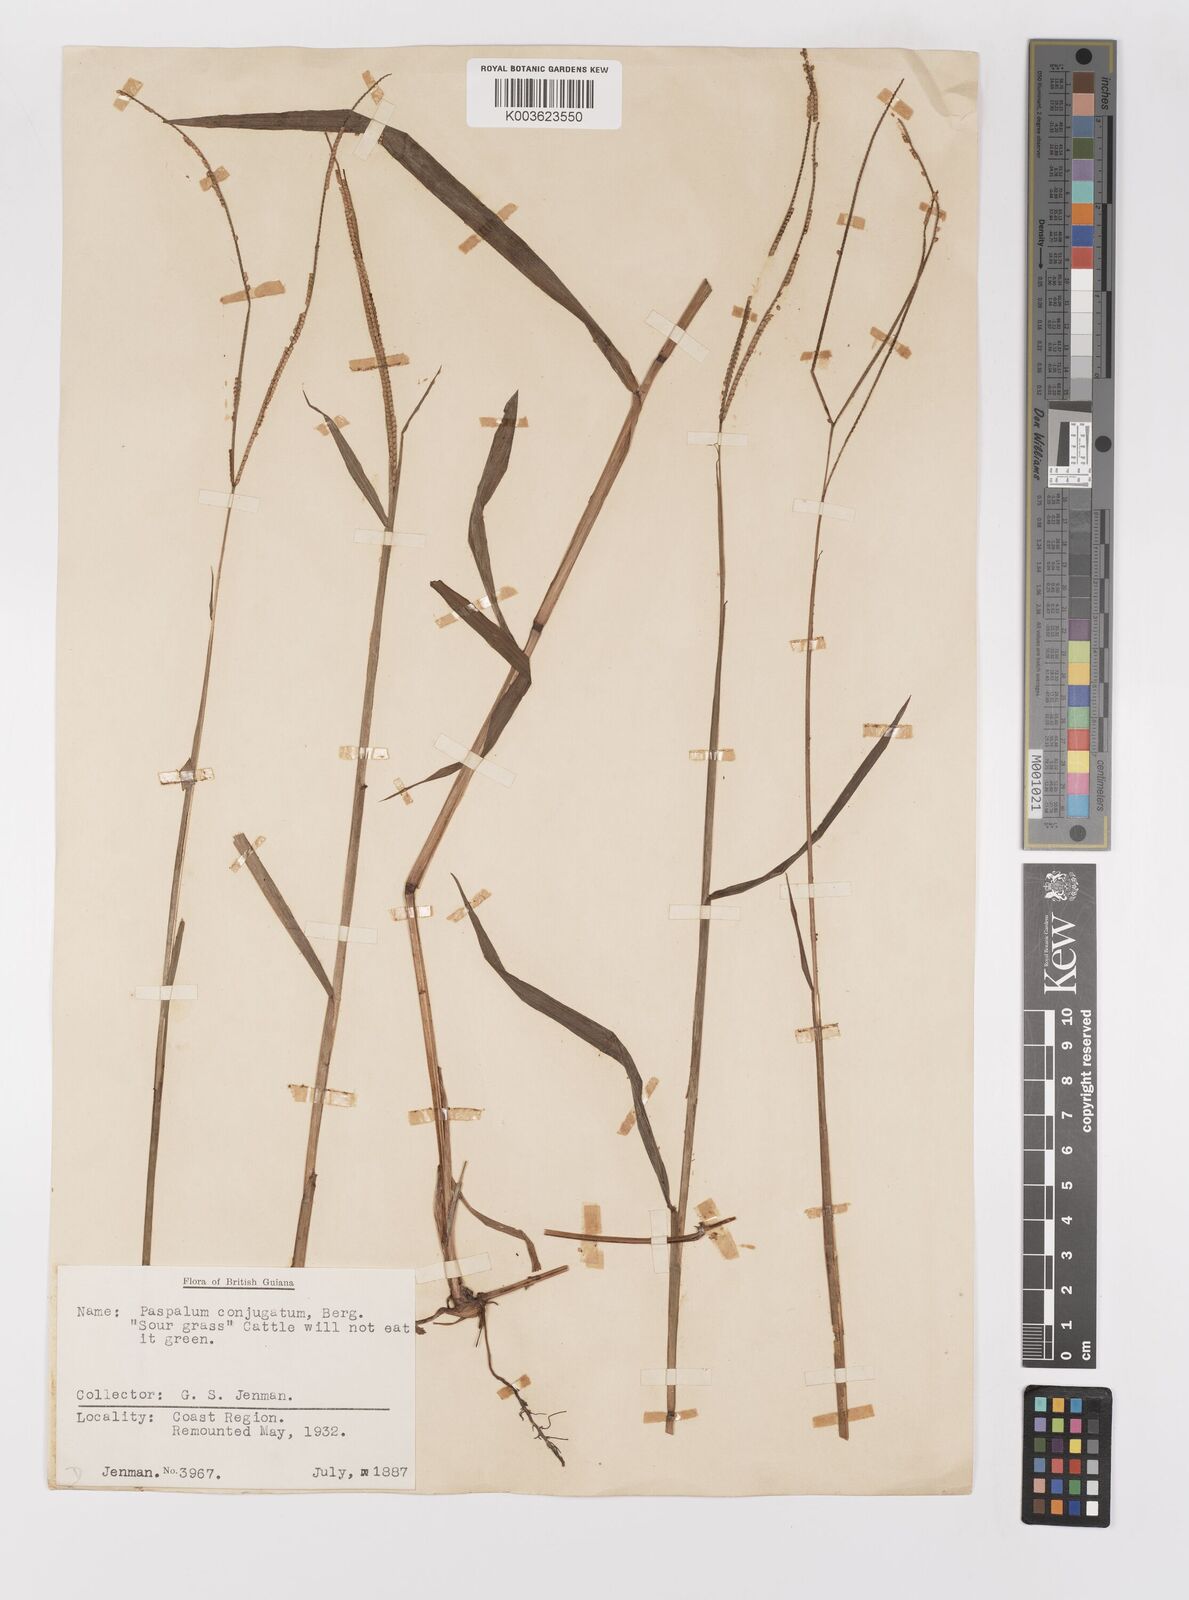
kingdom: Plantae
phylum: Tracheophyta
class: Liliopsida
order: Poales
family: Poaceae
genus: Paspalum
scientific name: Paspalum conjugatum
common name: Hilograss
